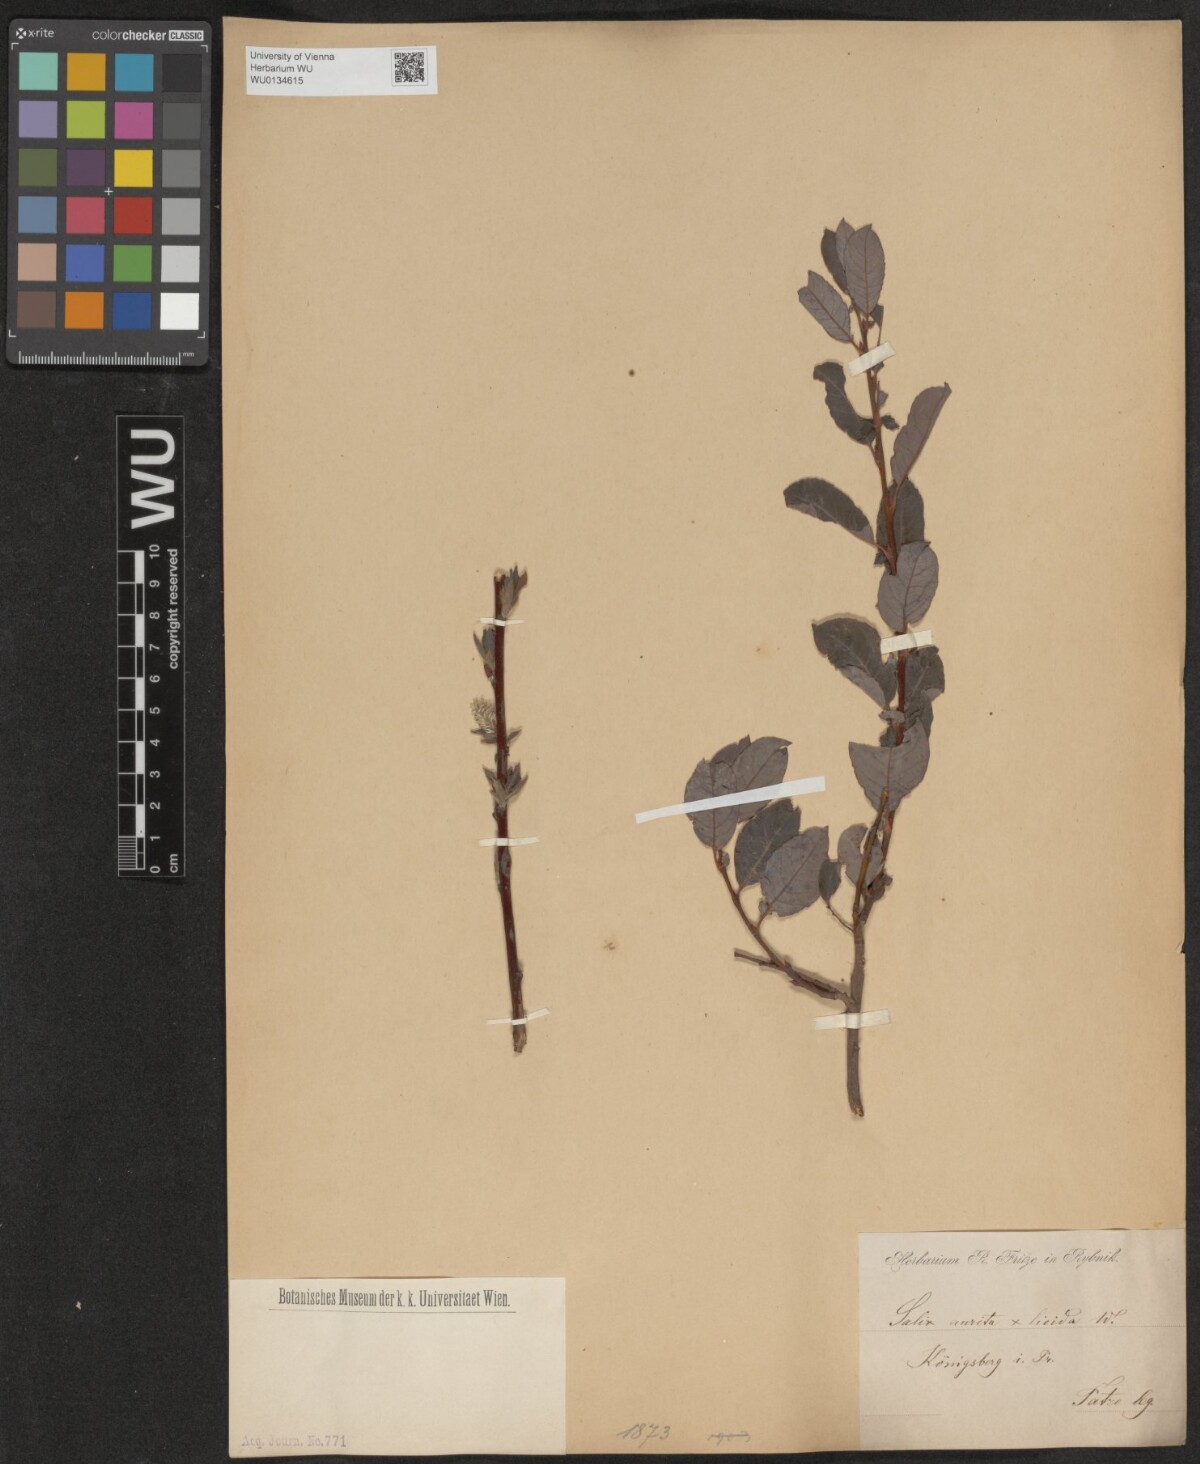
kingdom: Plantae
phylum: Tracheophyta
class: Magnoliopsida
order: Malpighiales
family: Salicaceae
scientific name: Salicaceae
